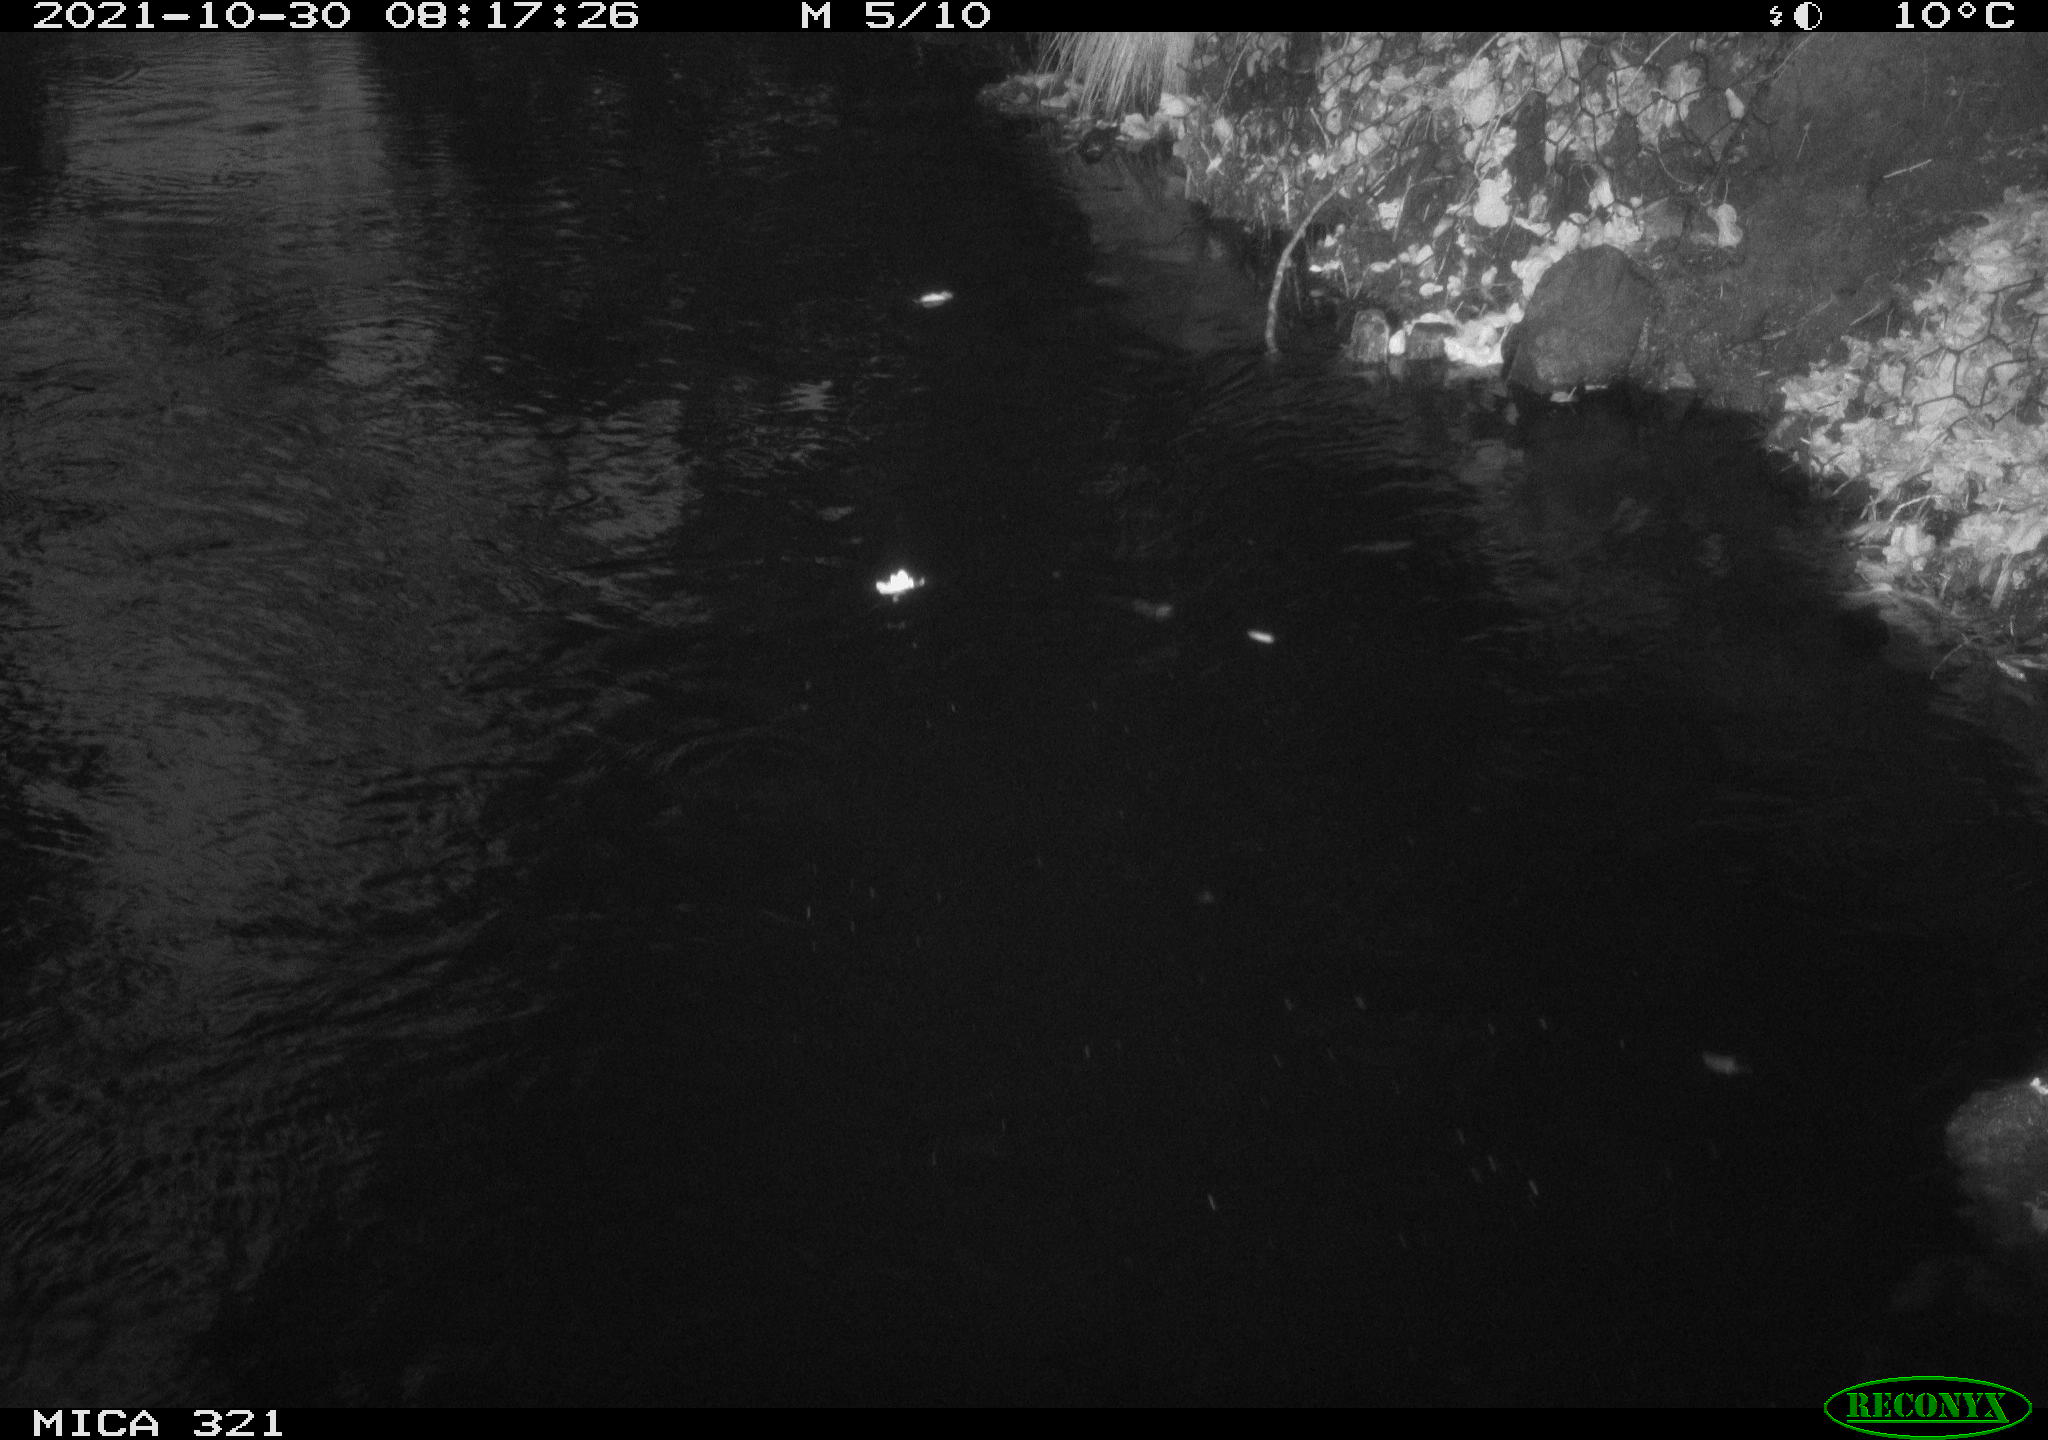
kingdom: Animalia
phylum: Chordata
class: Aves
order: Anseriformes
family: Anatidae
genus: Anas
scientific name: Anas platyrhynchos
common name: Mallard
